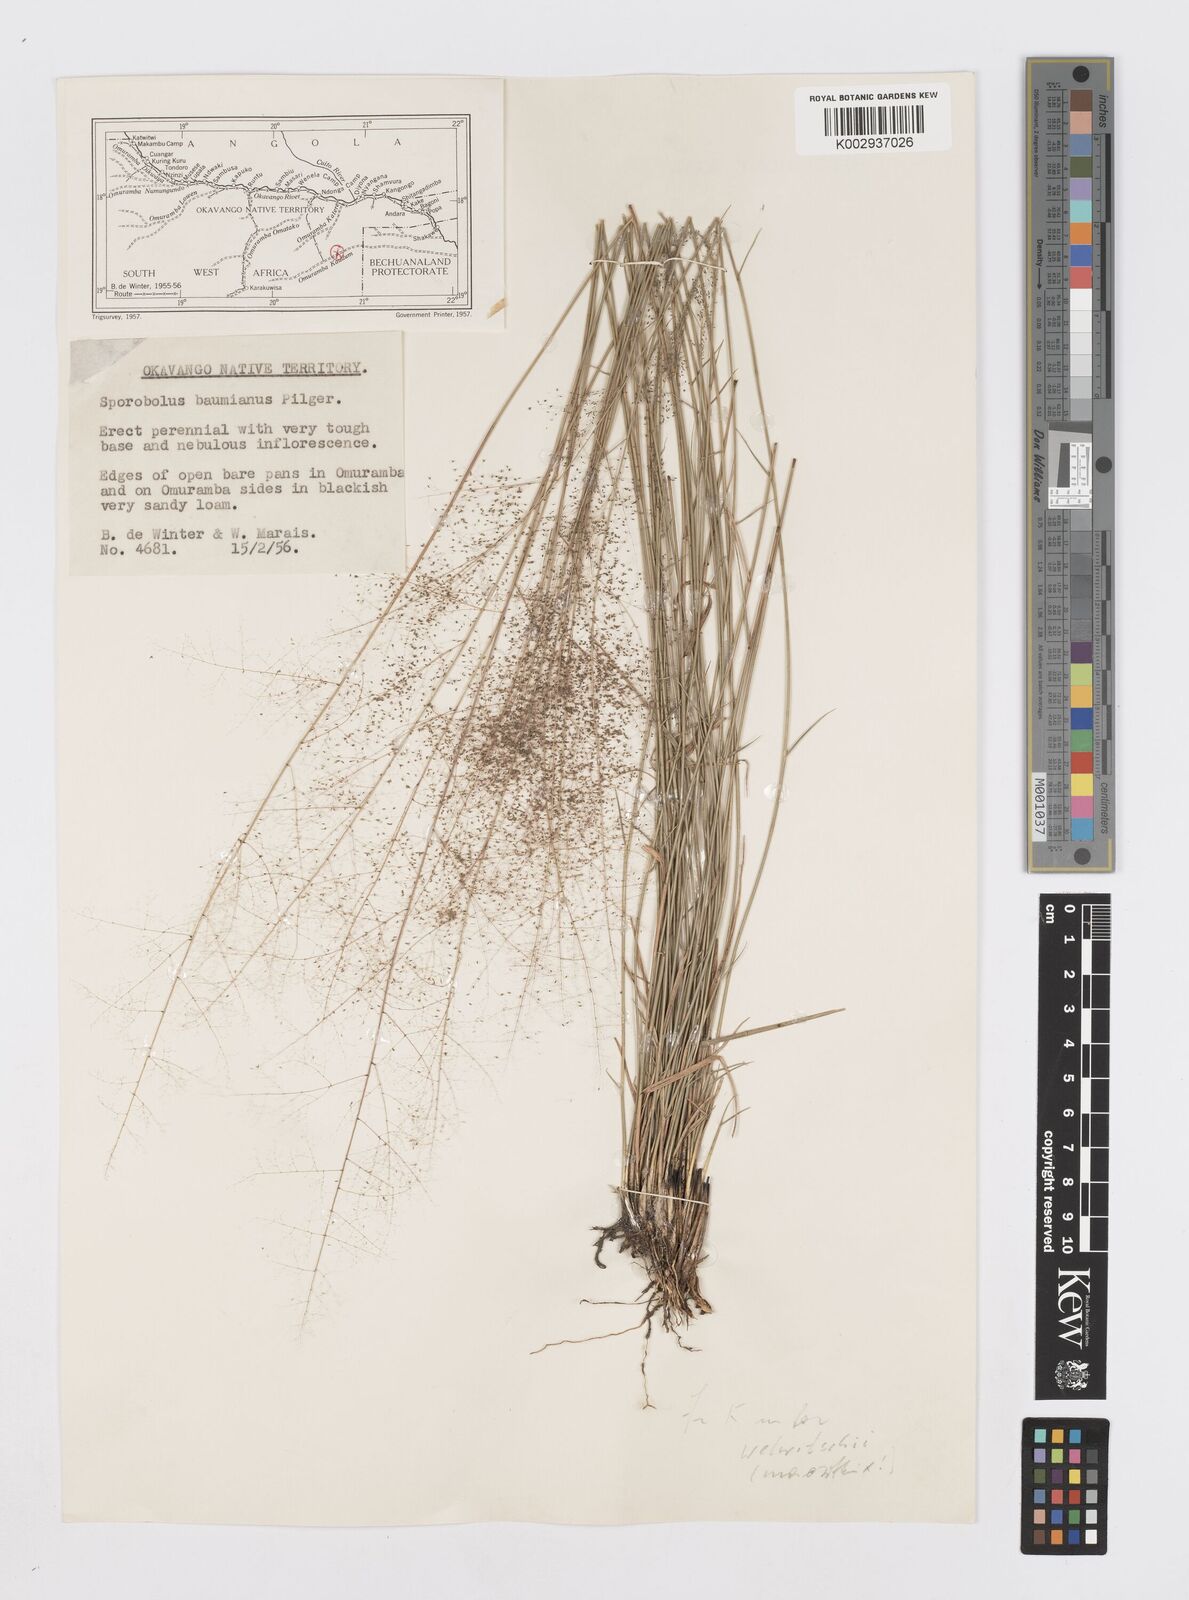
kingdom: Plantae
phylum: Tracheophyta
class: Liliopsida
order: Poales
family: Poaceae
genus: Sporobolus
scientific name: Sporobolus welwitschii
